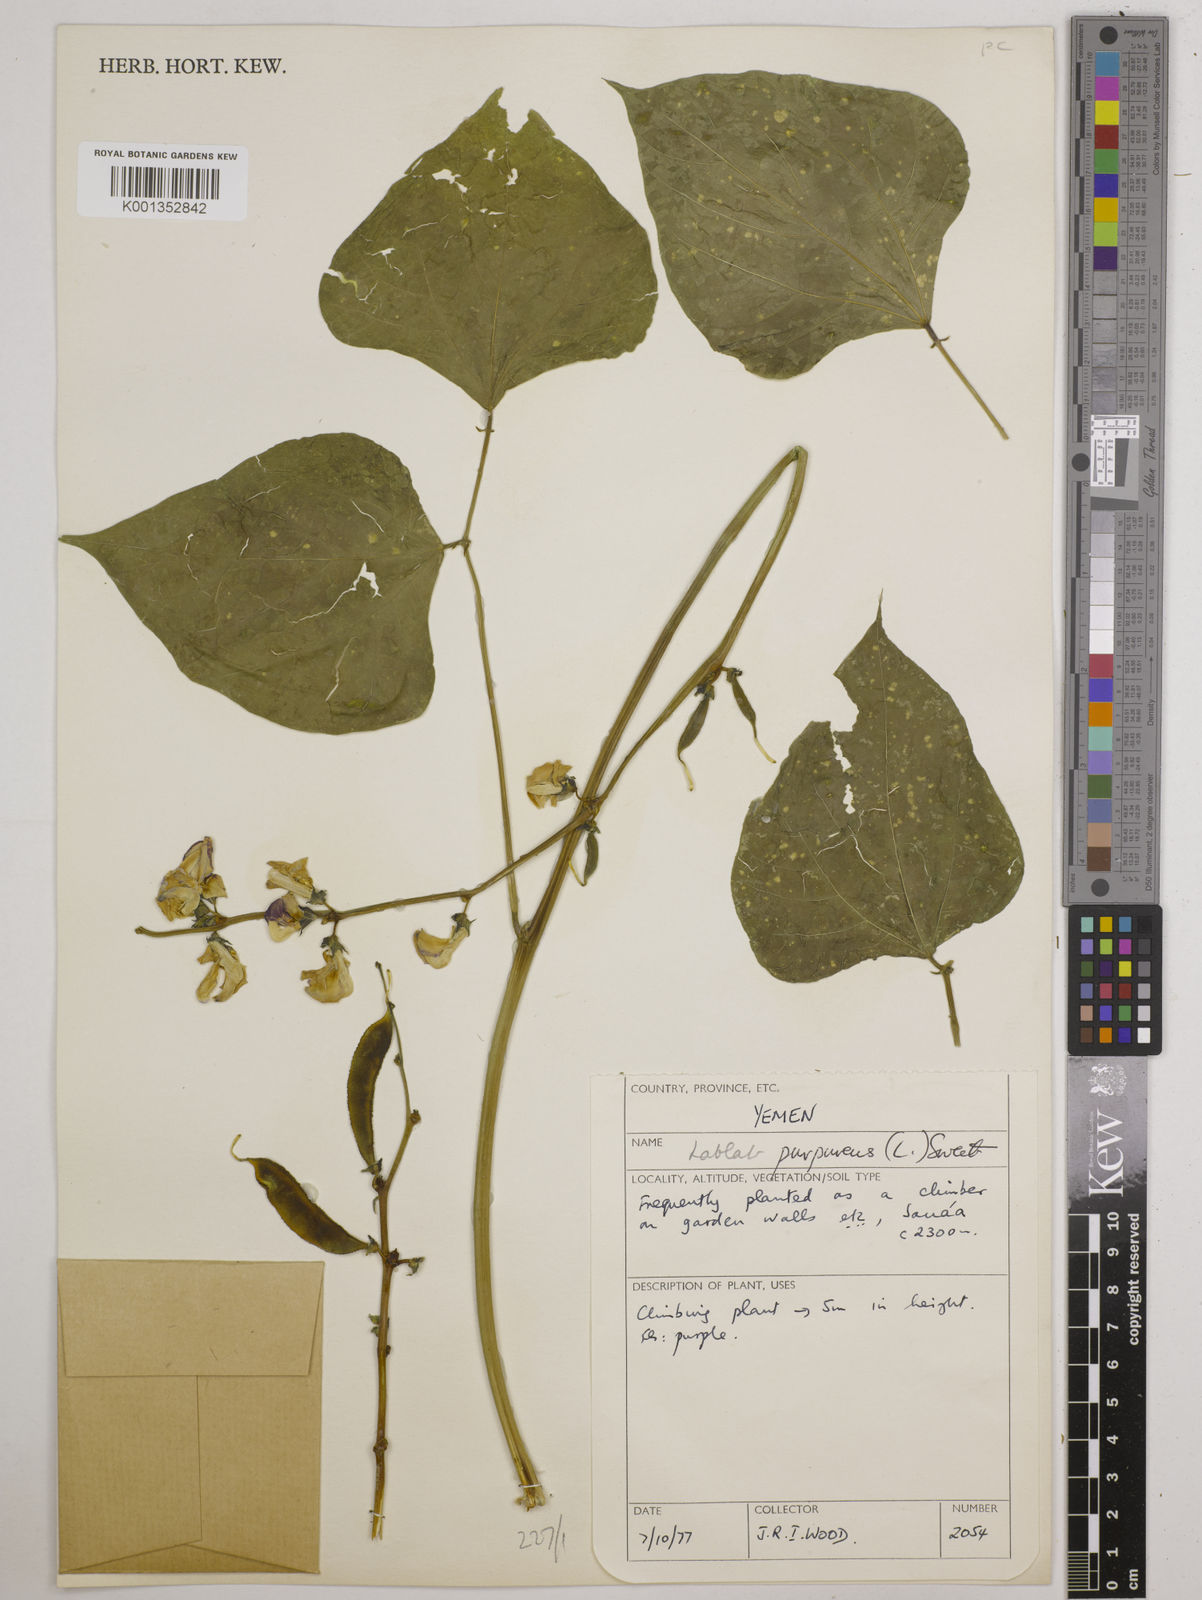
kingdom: Plantae
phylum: Tracheophyta
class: Magnoliopsida
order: Fabales
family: Fabaceae
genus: Lablab
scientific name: Lablab purpureus
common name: Lablab-bean
